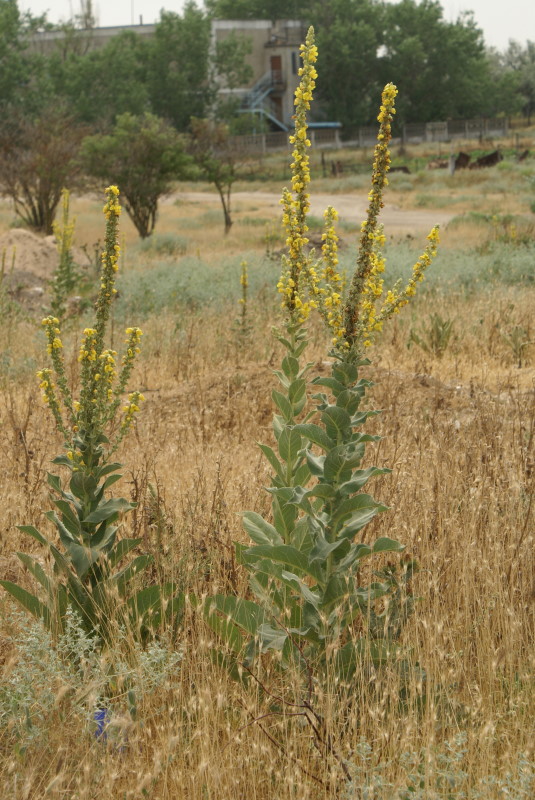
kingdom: Plantae
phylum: Tracheophyta
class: Magnoliopsida
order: Lamiales
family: Scrophulariaceae
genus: Verbascum
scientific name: Verbascum
